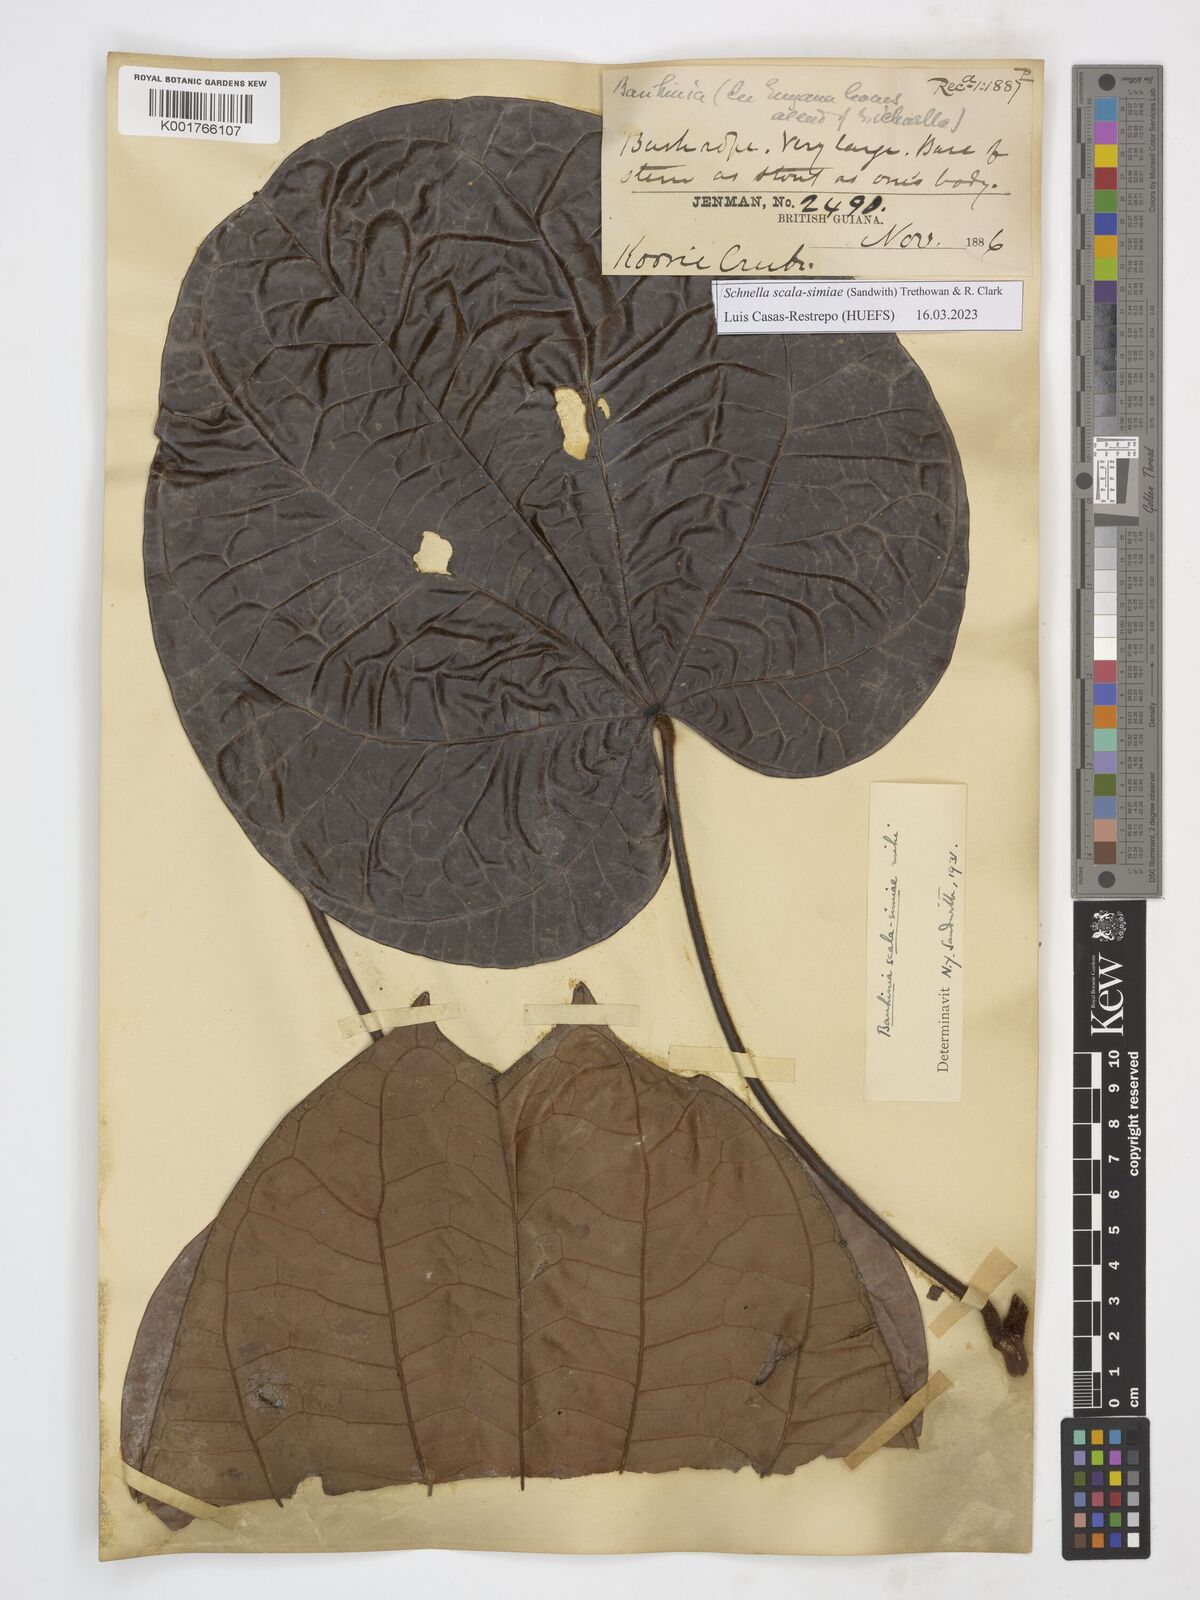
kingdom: Plantae
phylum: Tracheophyta
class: Magnoliopsida
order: Fabales
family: Fabaceae
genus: Schnella
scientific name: Schnella scala-simiae
